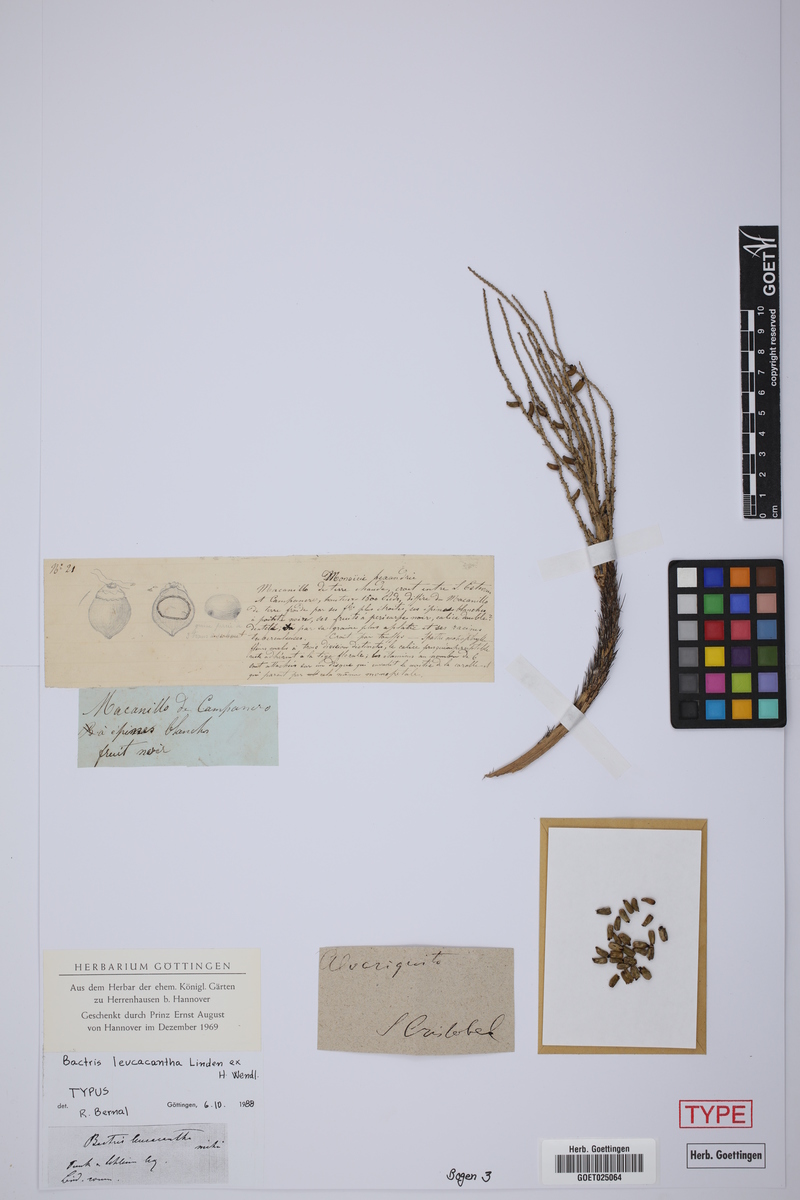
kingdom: Plantae
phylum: Tracheophyta
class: Liliopsida
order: Arecales
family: Arecaceae
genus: Bactris
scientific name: Bactris maraja
